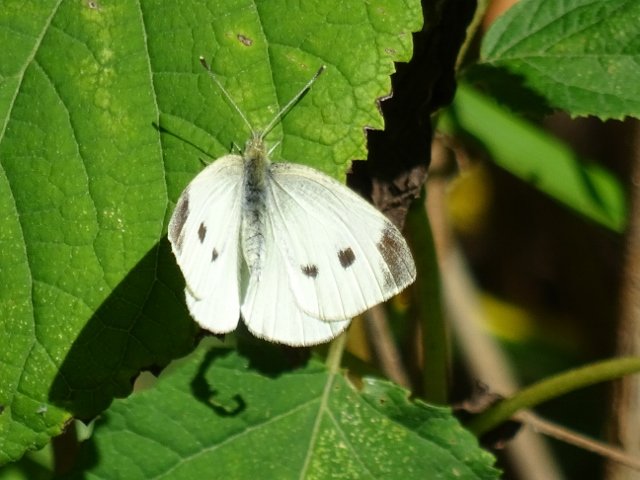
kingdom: Animalia
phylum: Arthropoda
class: Insecta
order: Lepidoptera
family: Pieridae
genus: Pieris
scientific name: Pieris rapae
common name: Cabbage White
